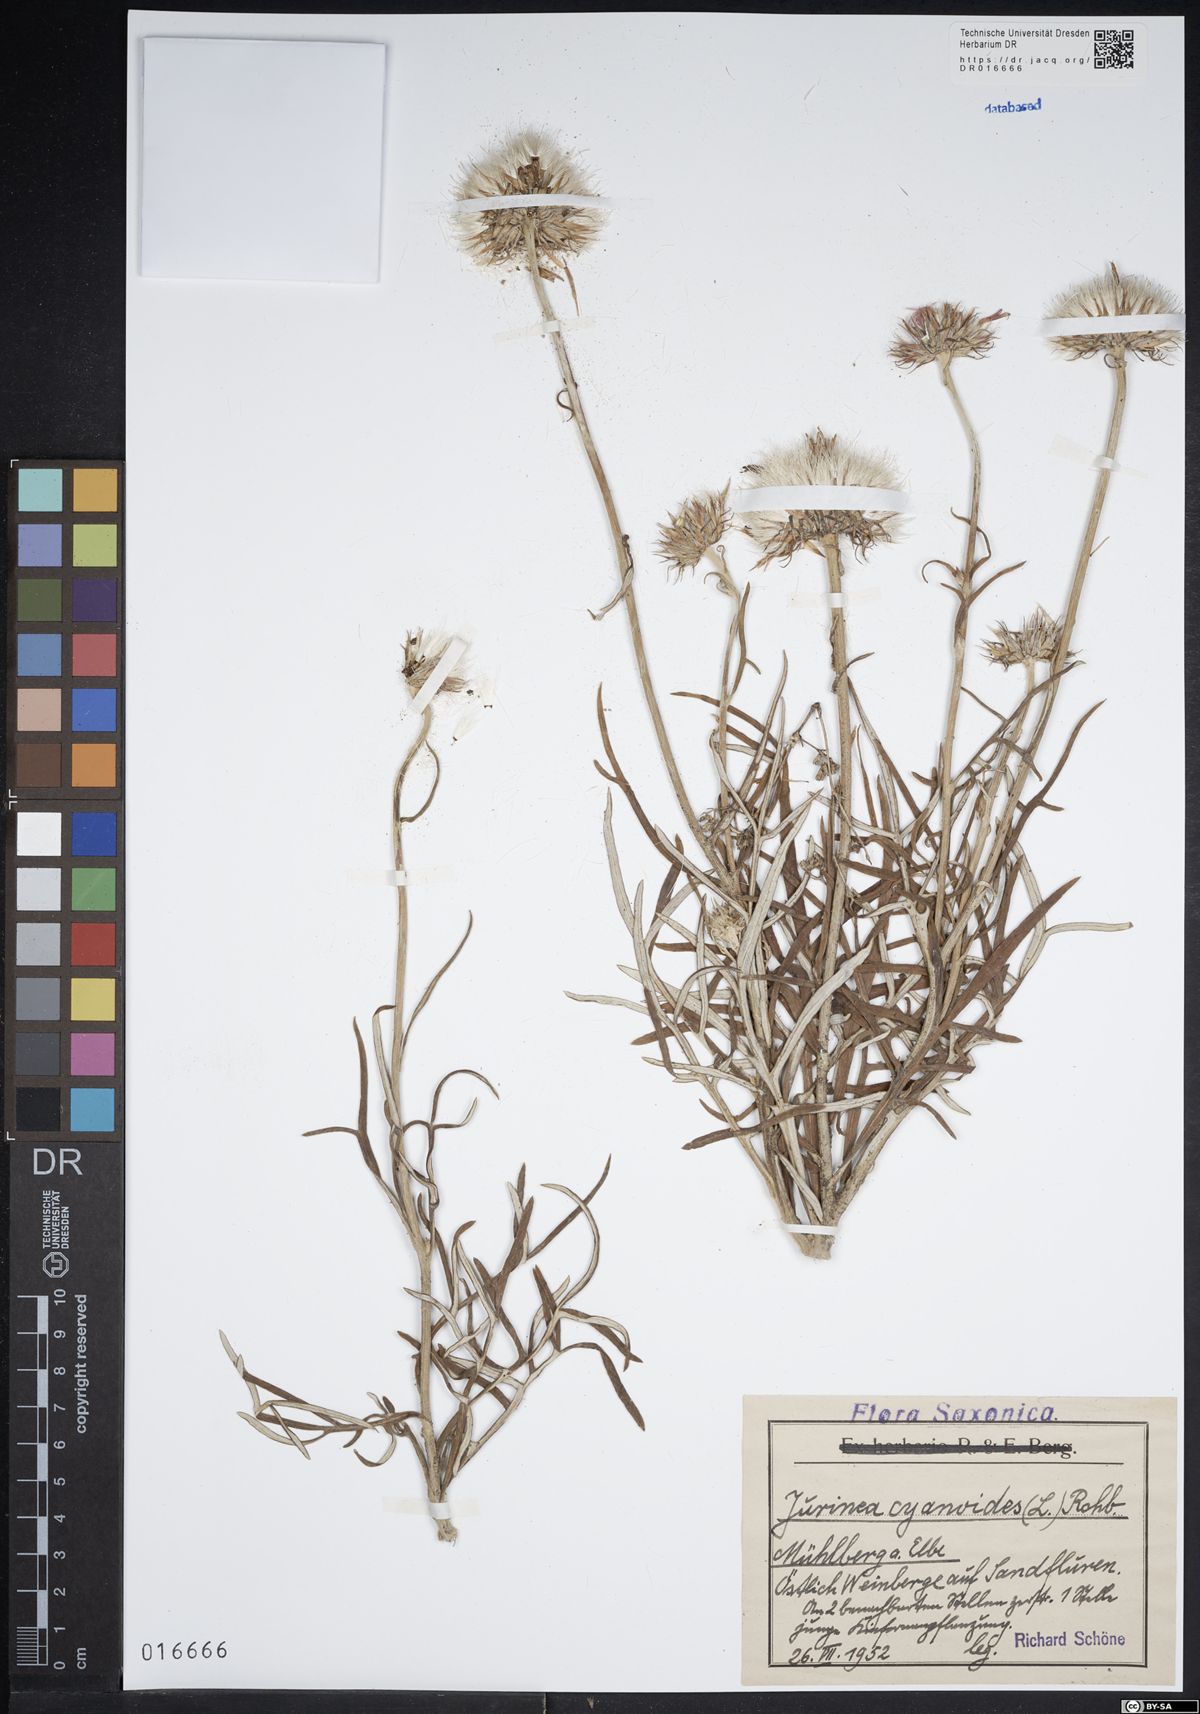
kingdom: Plantae
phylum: Tracheophyta
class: Magnoliopsida
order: Asterales
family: Asteraceae
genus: Jurinea
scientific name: Jurinea cyanoides
